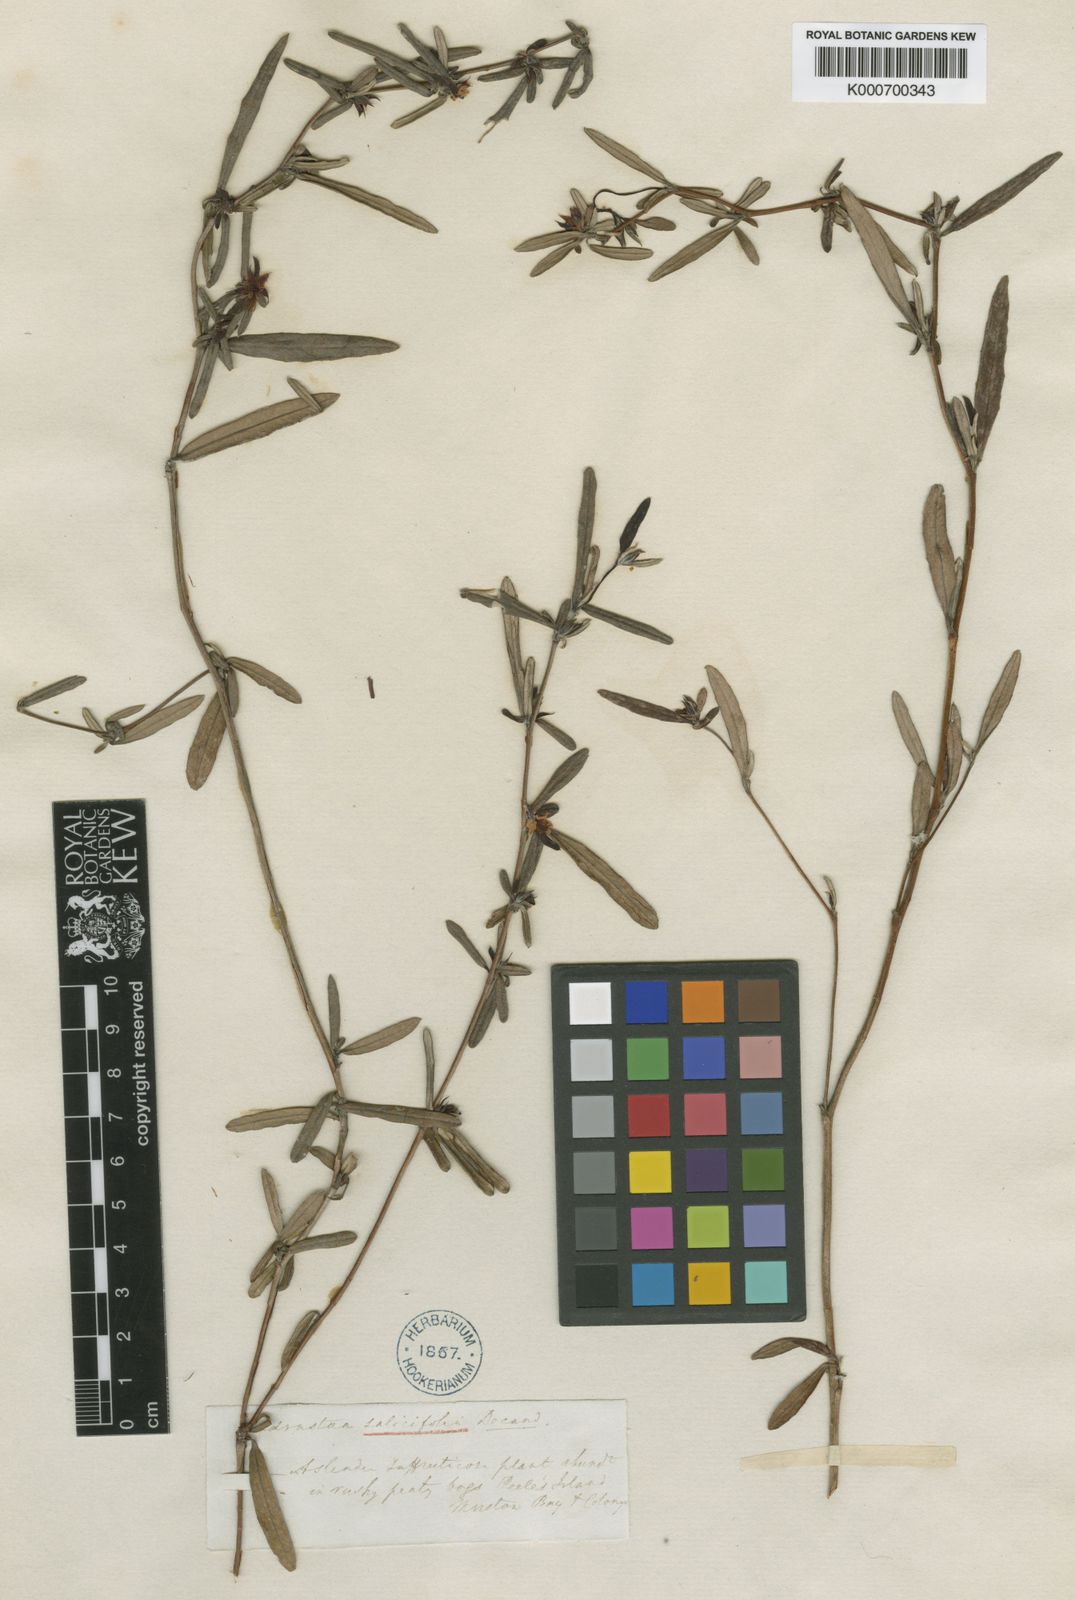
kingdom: Plantae
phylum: Tracheophyta
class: Magnoliopsida
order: Dilleniales
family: Dilleniaceae
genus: Hibbertia
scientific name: Hibbertia salicifolia
